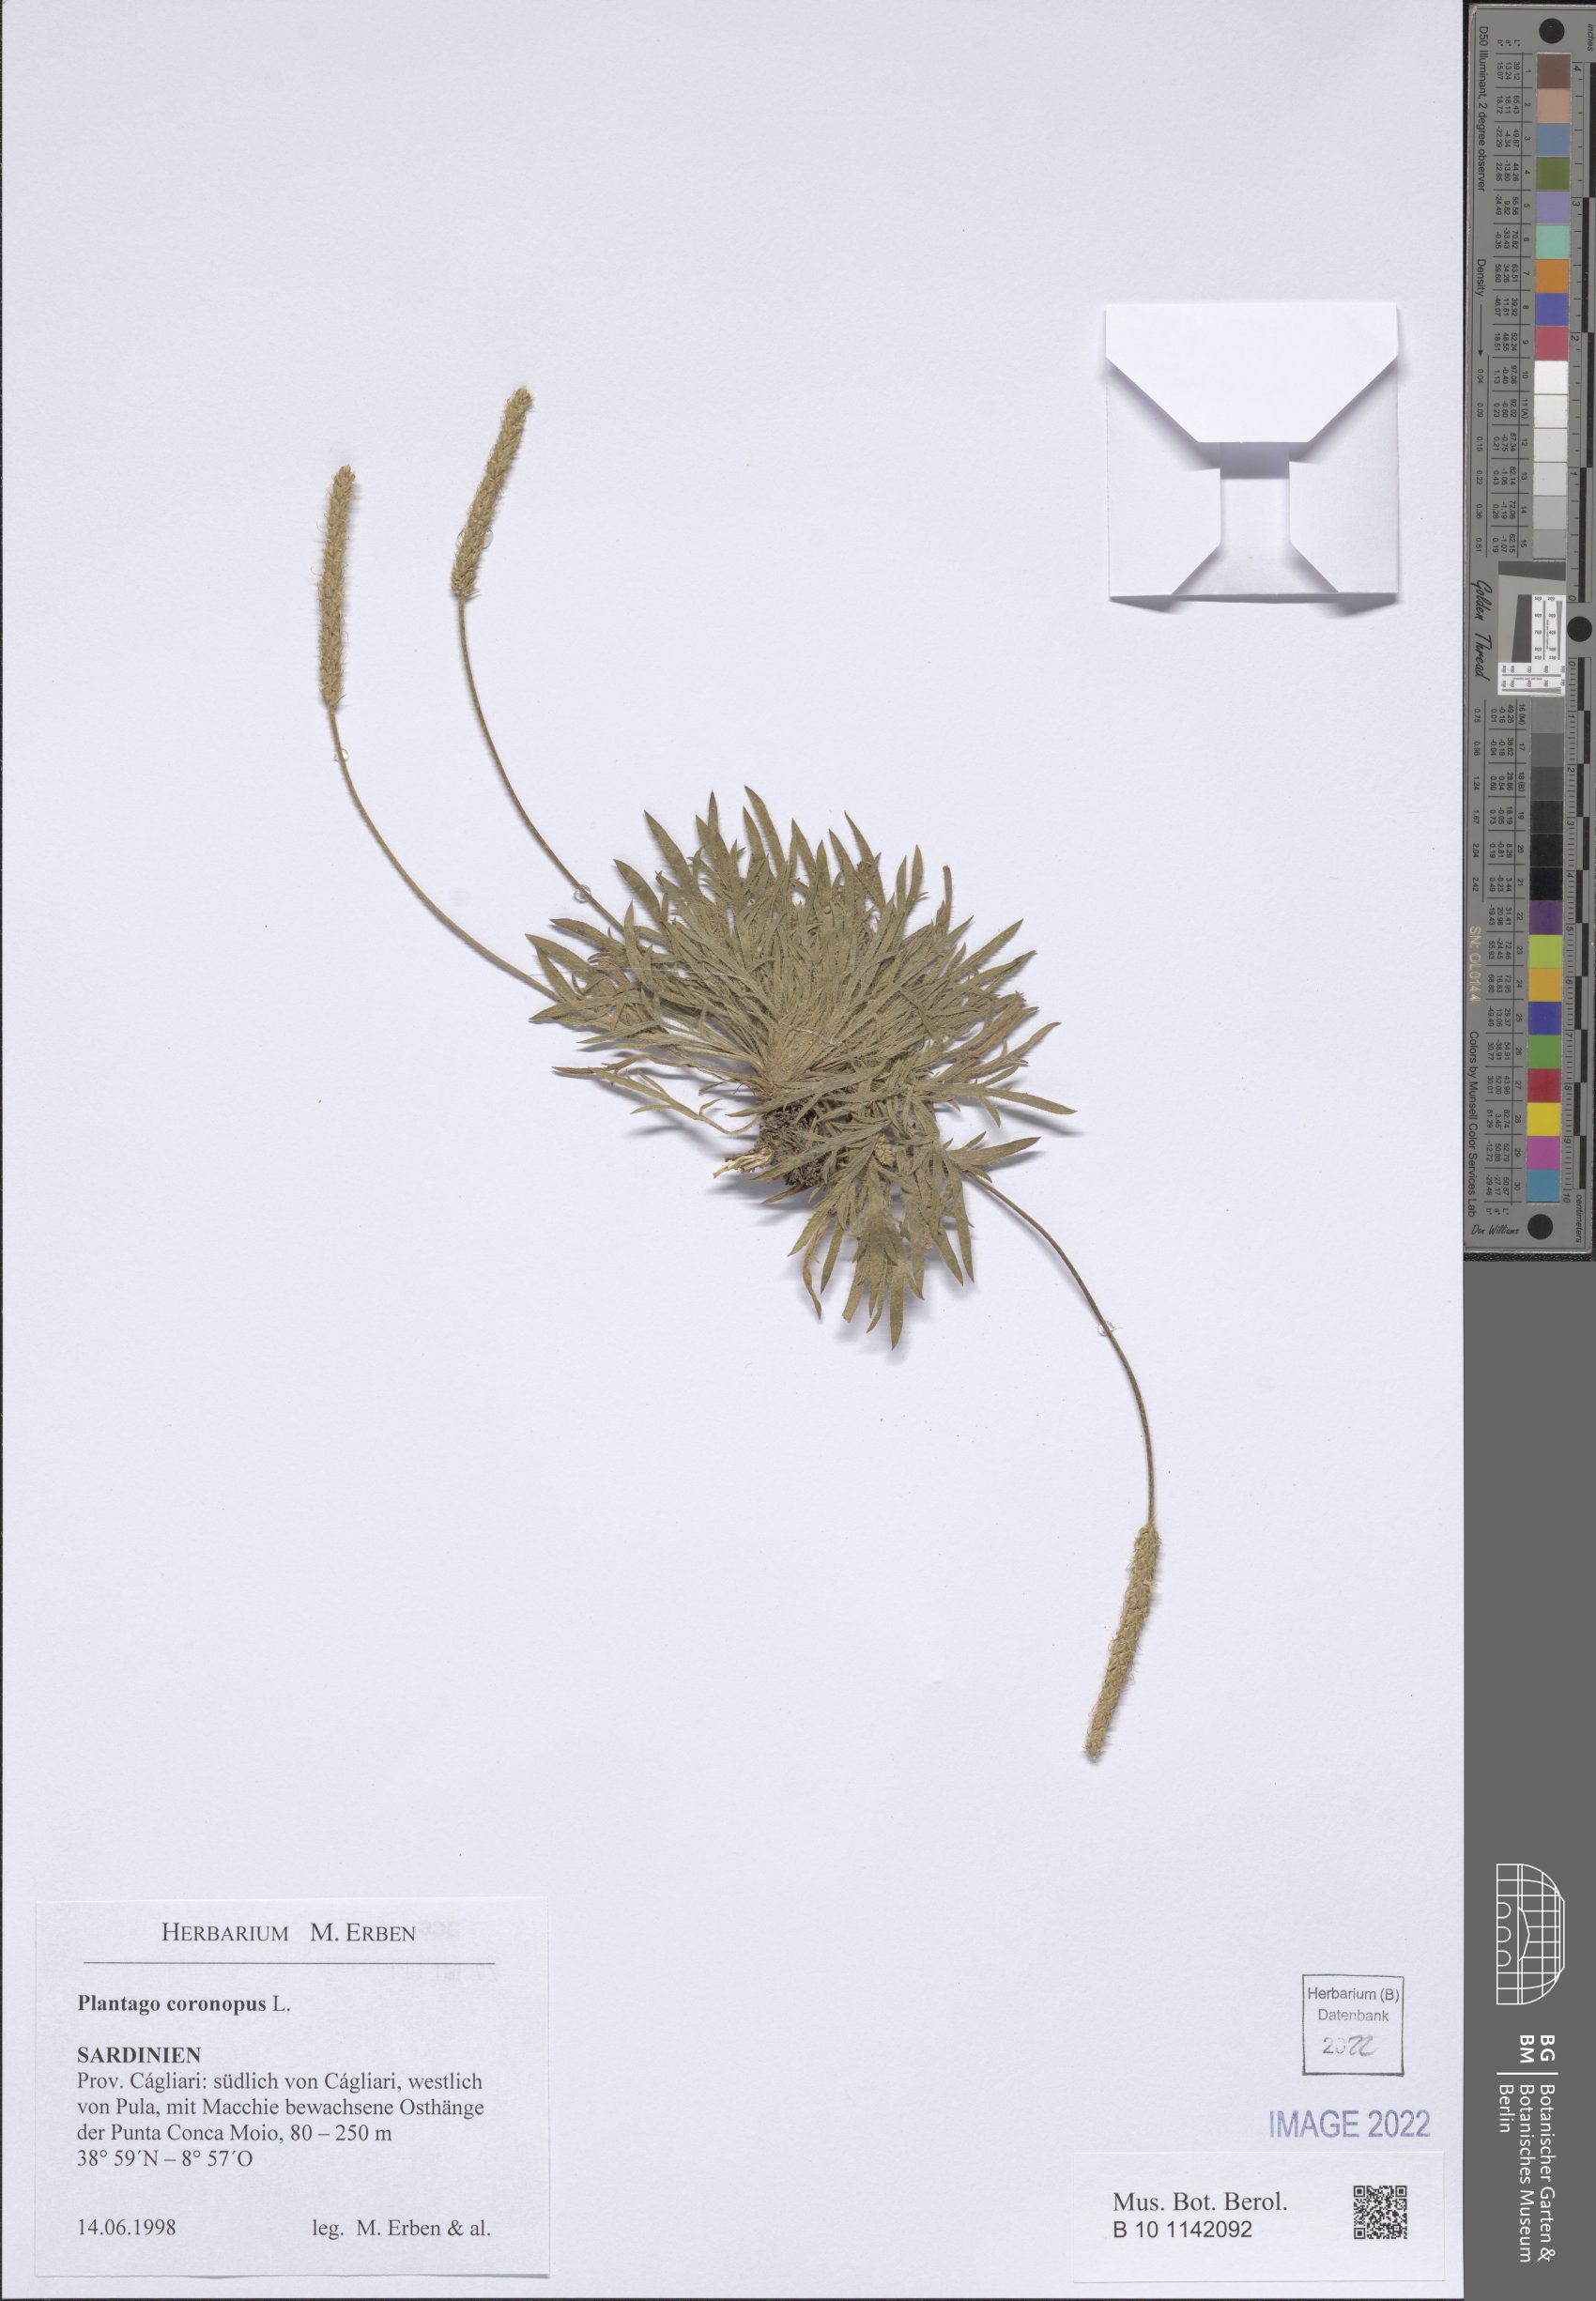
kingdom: Plantae
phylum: Tracheophyta
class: Magnoliopsida
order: Lamiales
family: Plantaginaceae
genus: Plantago
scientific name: Plantago coronopus
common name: Buck's-horn plantain
